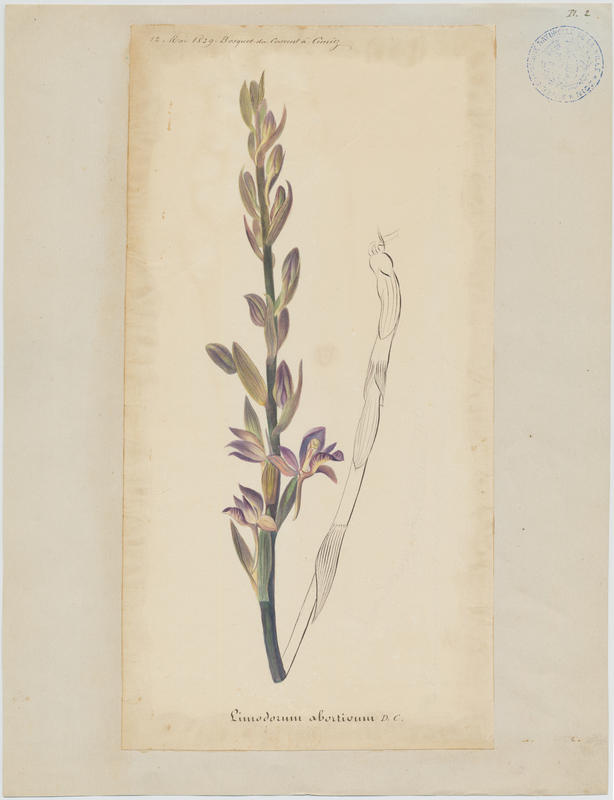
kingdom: Plantae
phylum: Tracheophyta
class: Liliopsida
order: Asparagales
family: Orchidaceae
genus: Limodorum
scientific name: Limodorum abortivum
